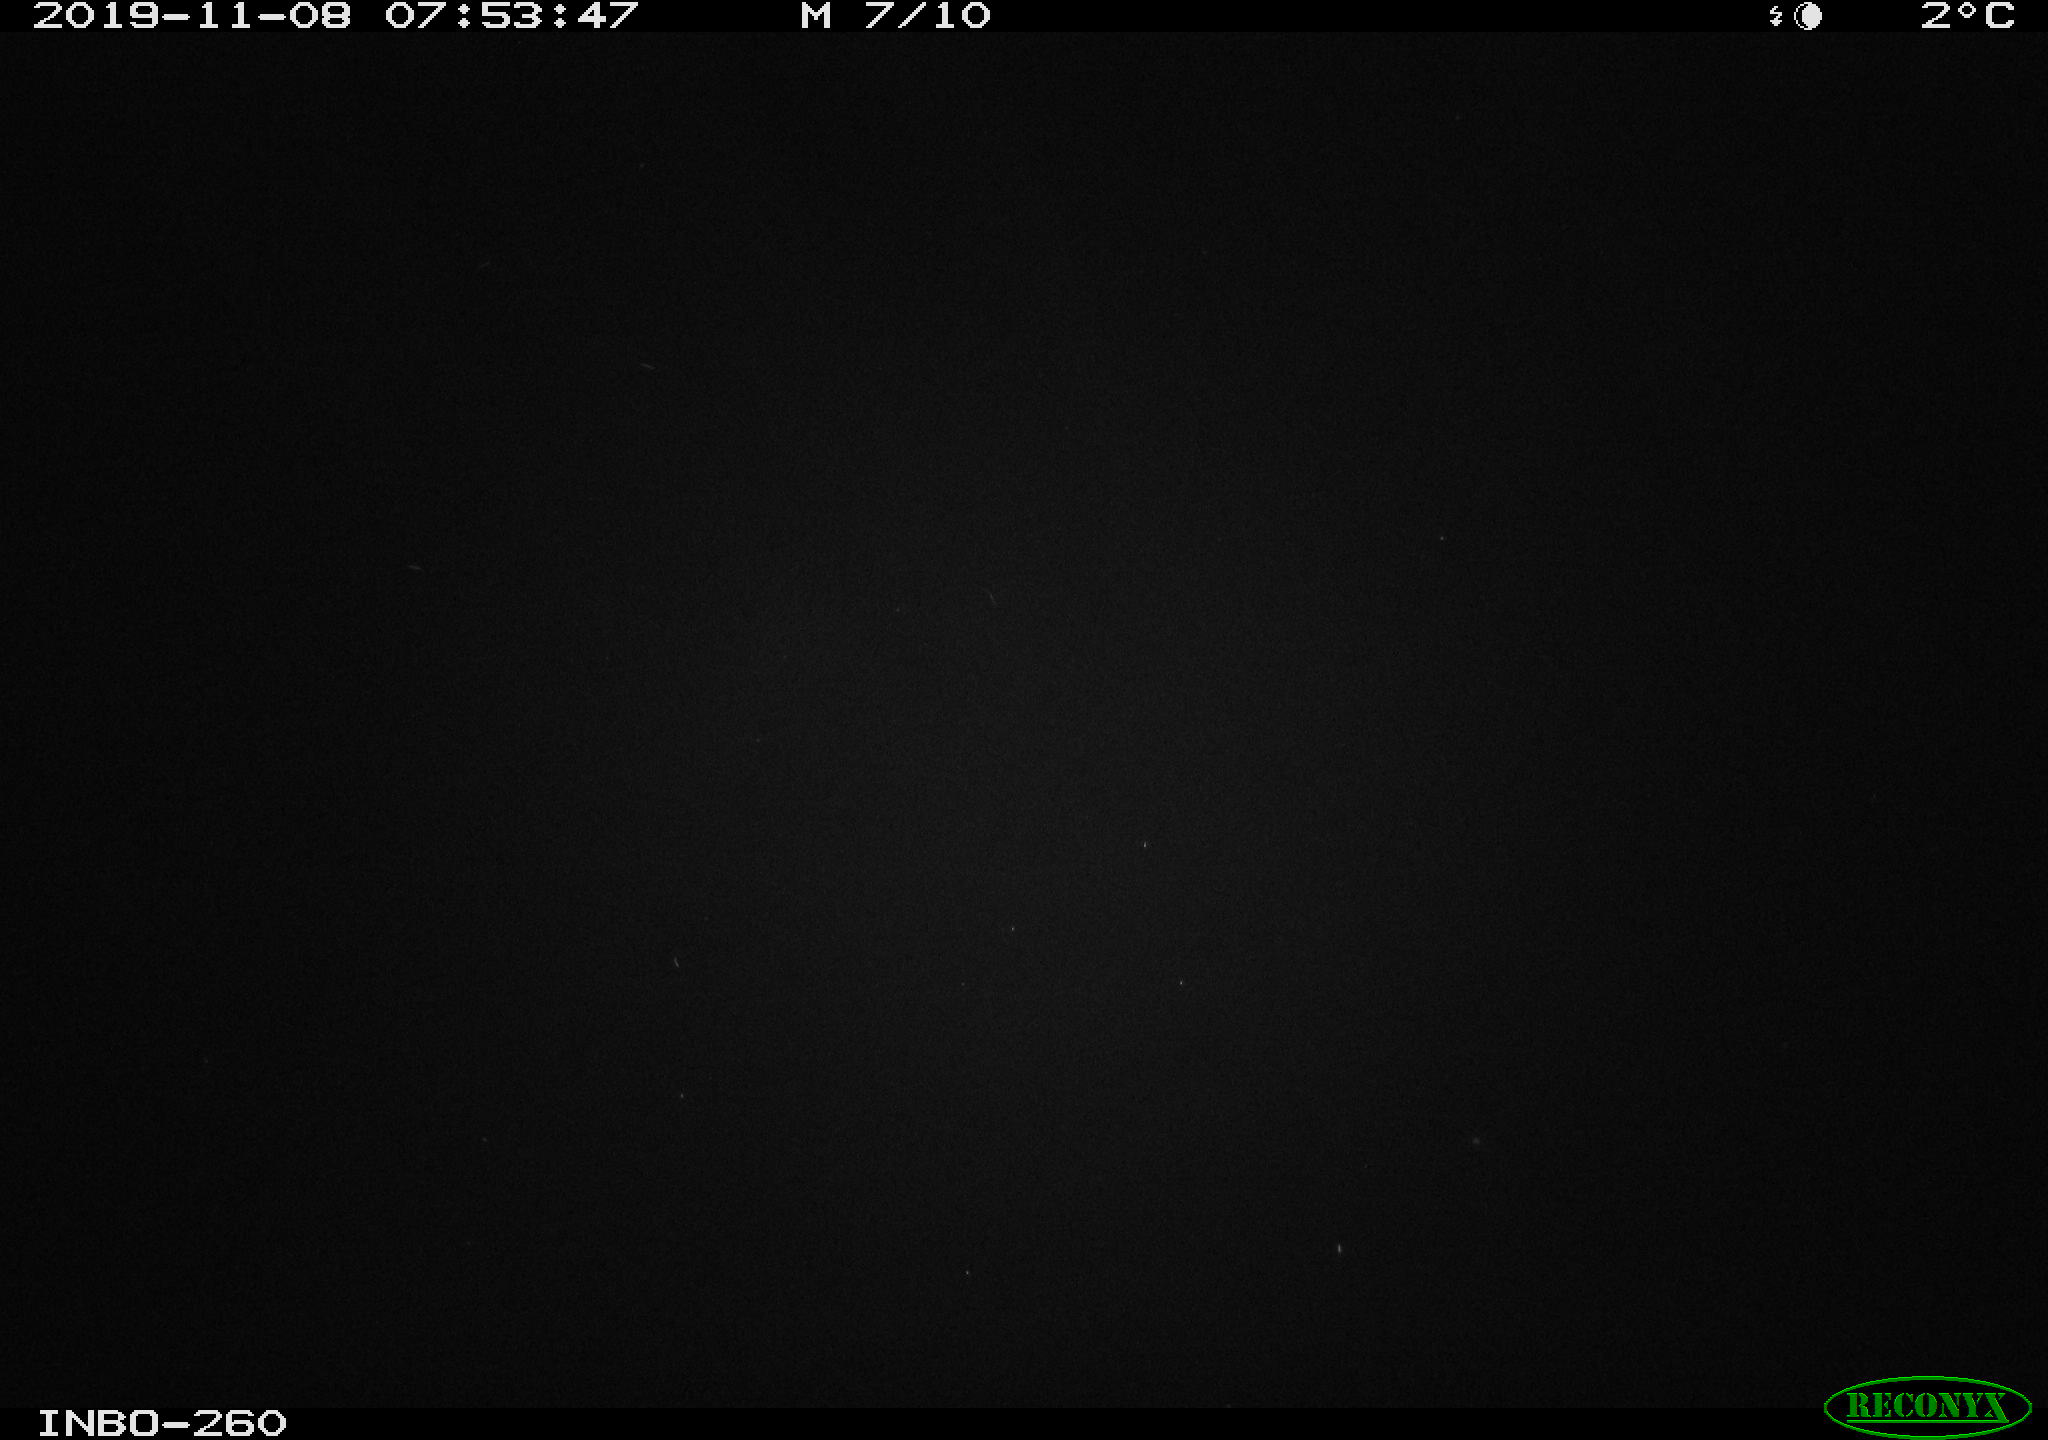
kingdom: Animalia
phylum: Chordata
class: Aves
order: Anseriformes
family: Anatidae
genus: Anas
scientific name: Anas platyrhynchos
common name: Mallard
